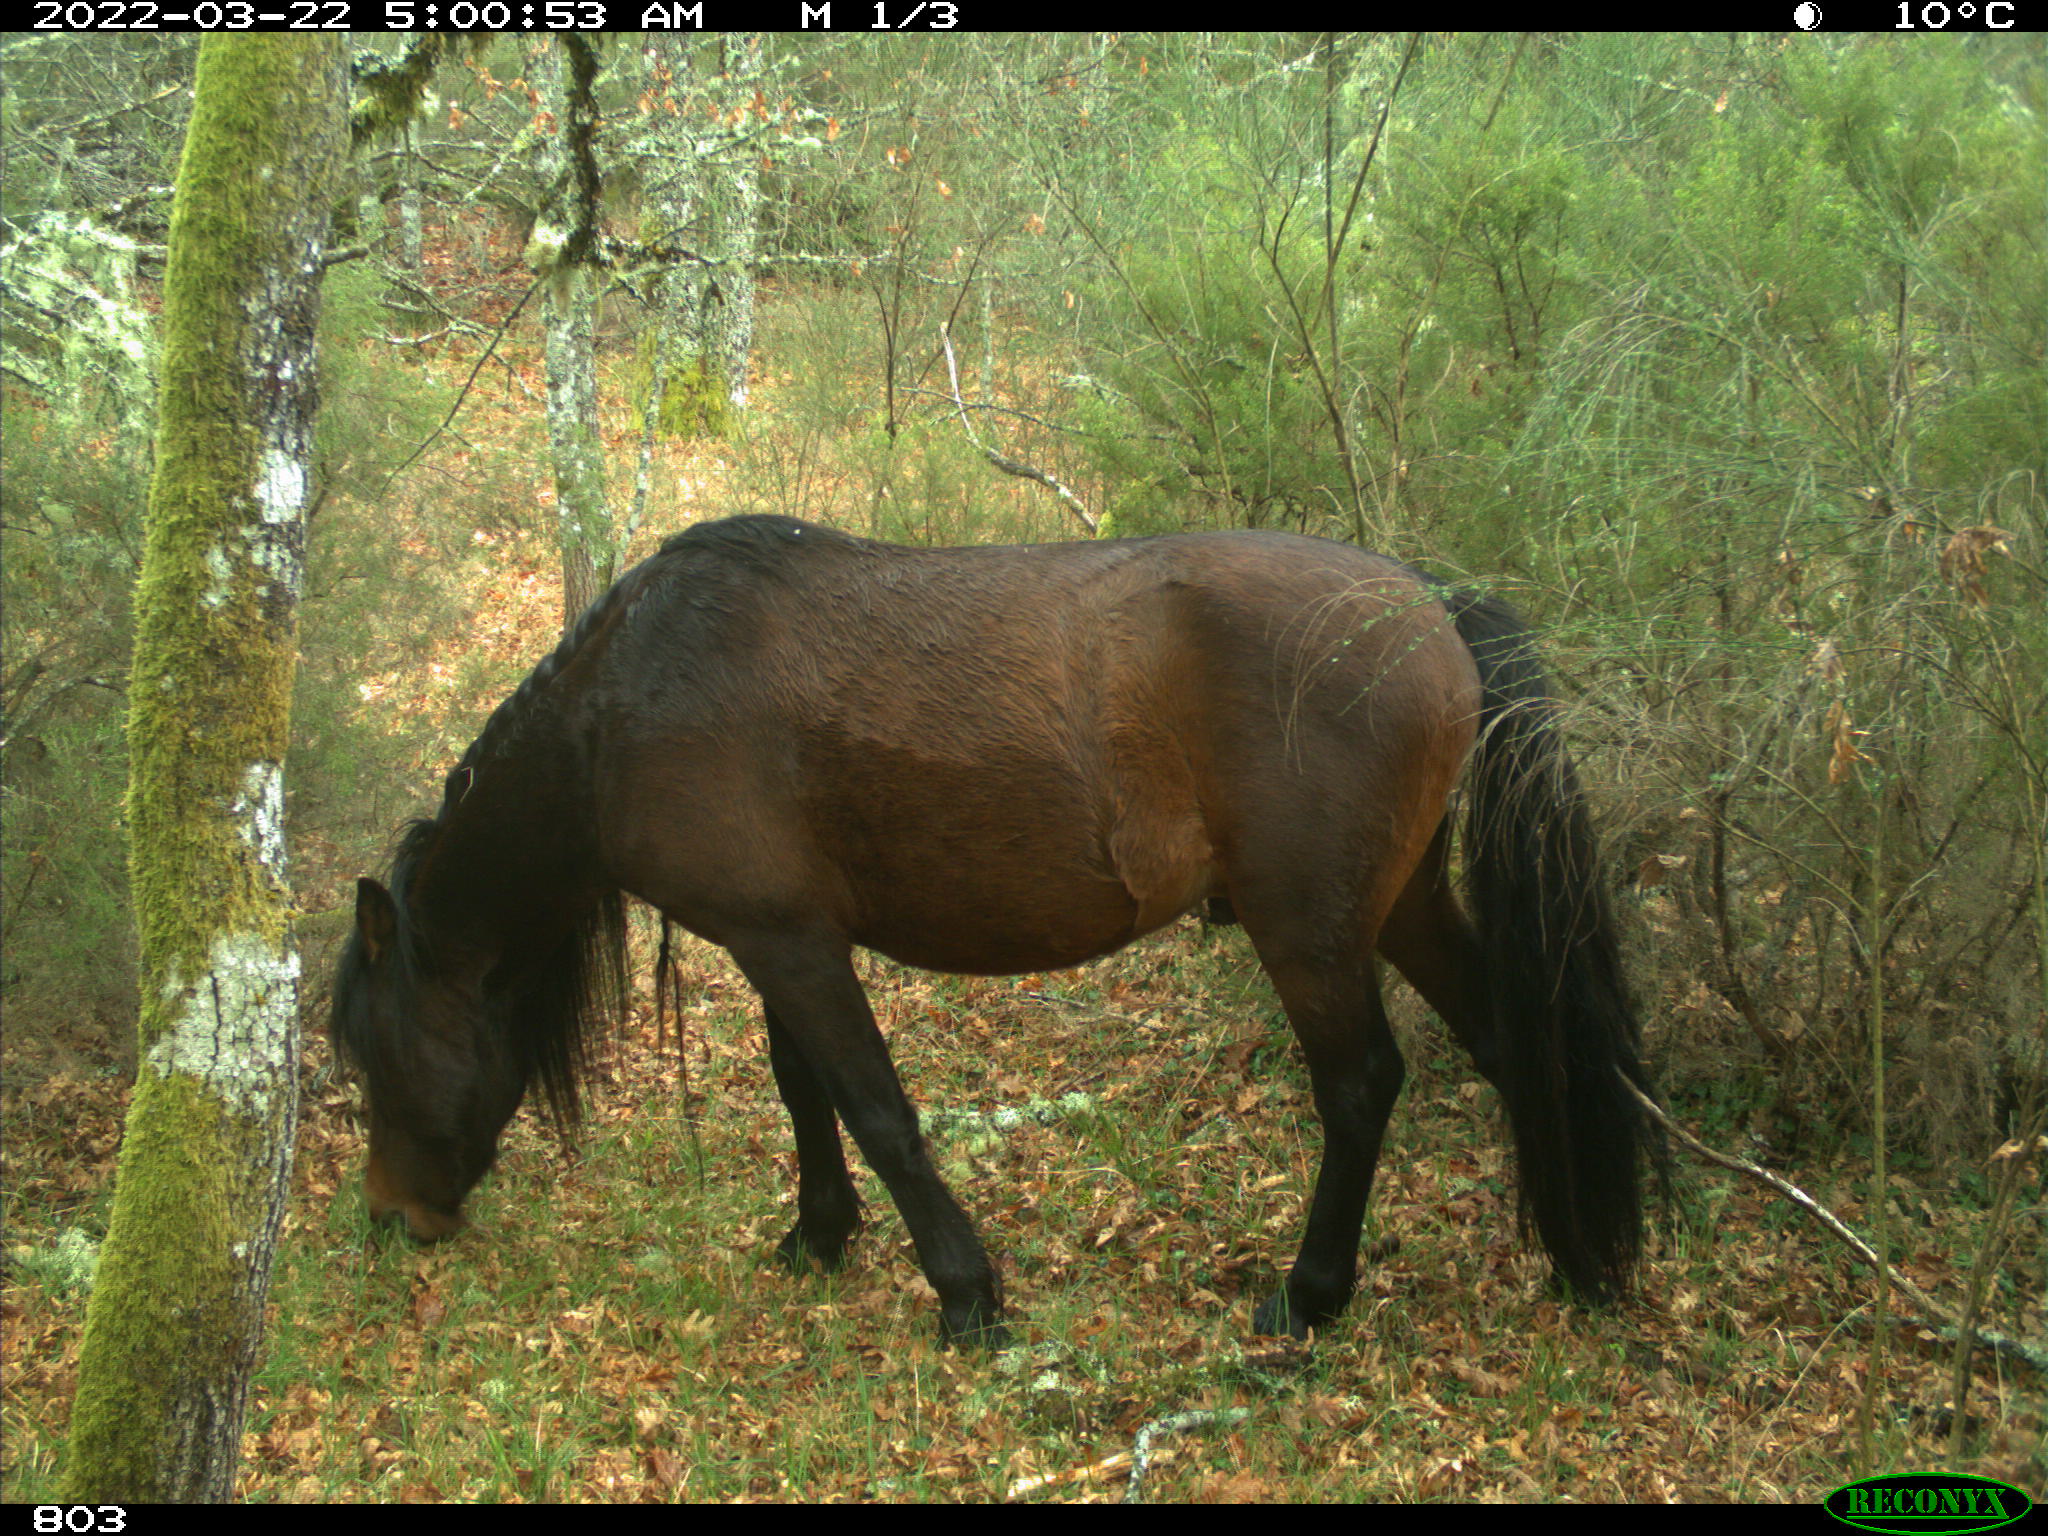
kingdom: Animalia
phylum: Chordata
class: Mammalia
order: Perissodactyla
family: Equidae
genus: Equus
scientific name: Equus caballus
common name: Horse
